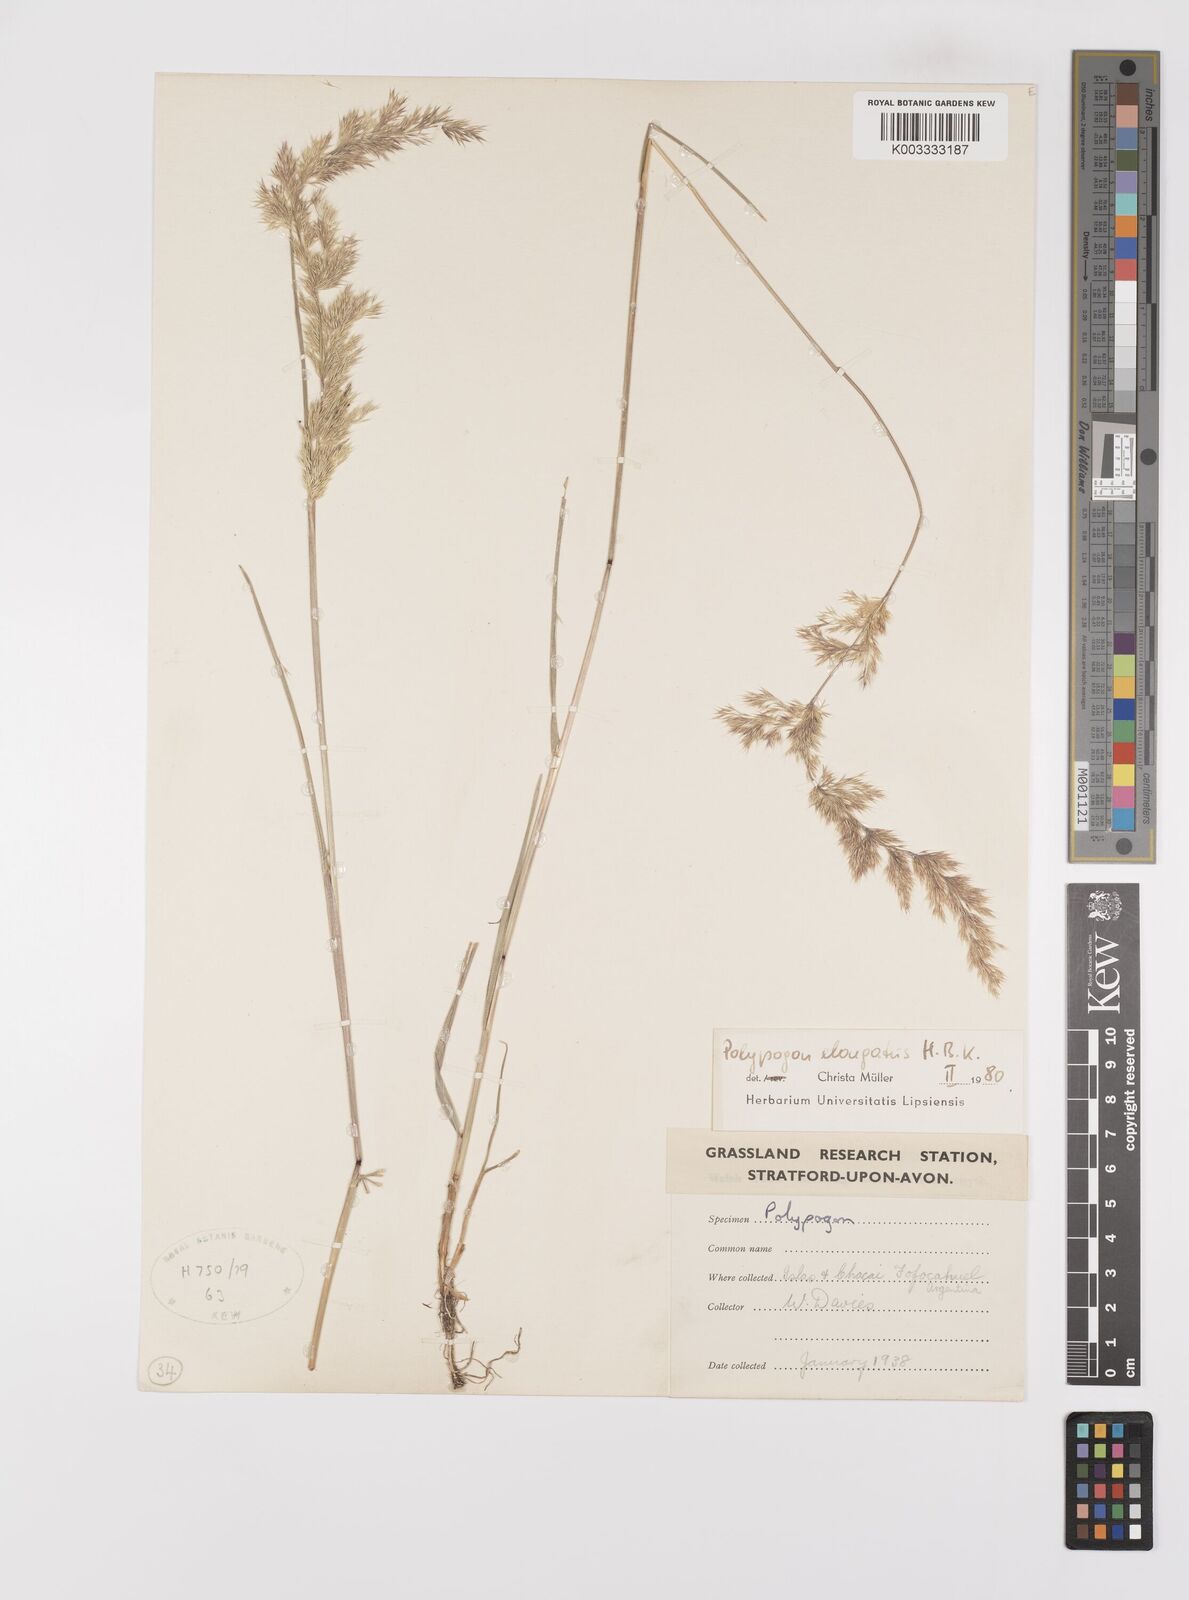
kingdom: Plantae
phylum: Tracheophyta
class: Liliopsida
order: Poales
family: Poaceae
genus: Polypogon
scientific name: Polypogon elongatus
